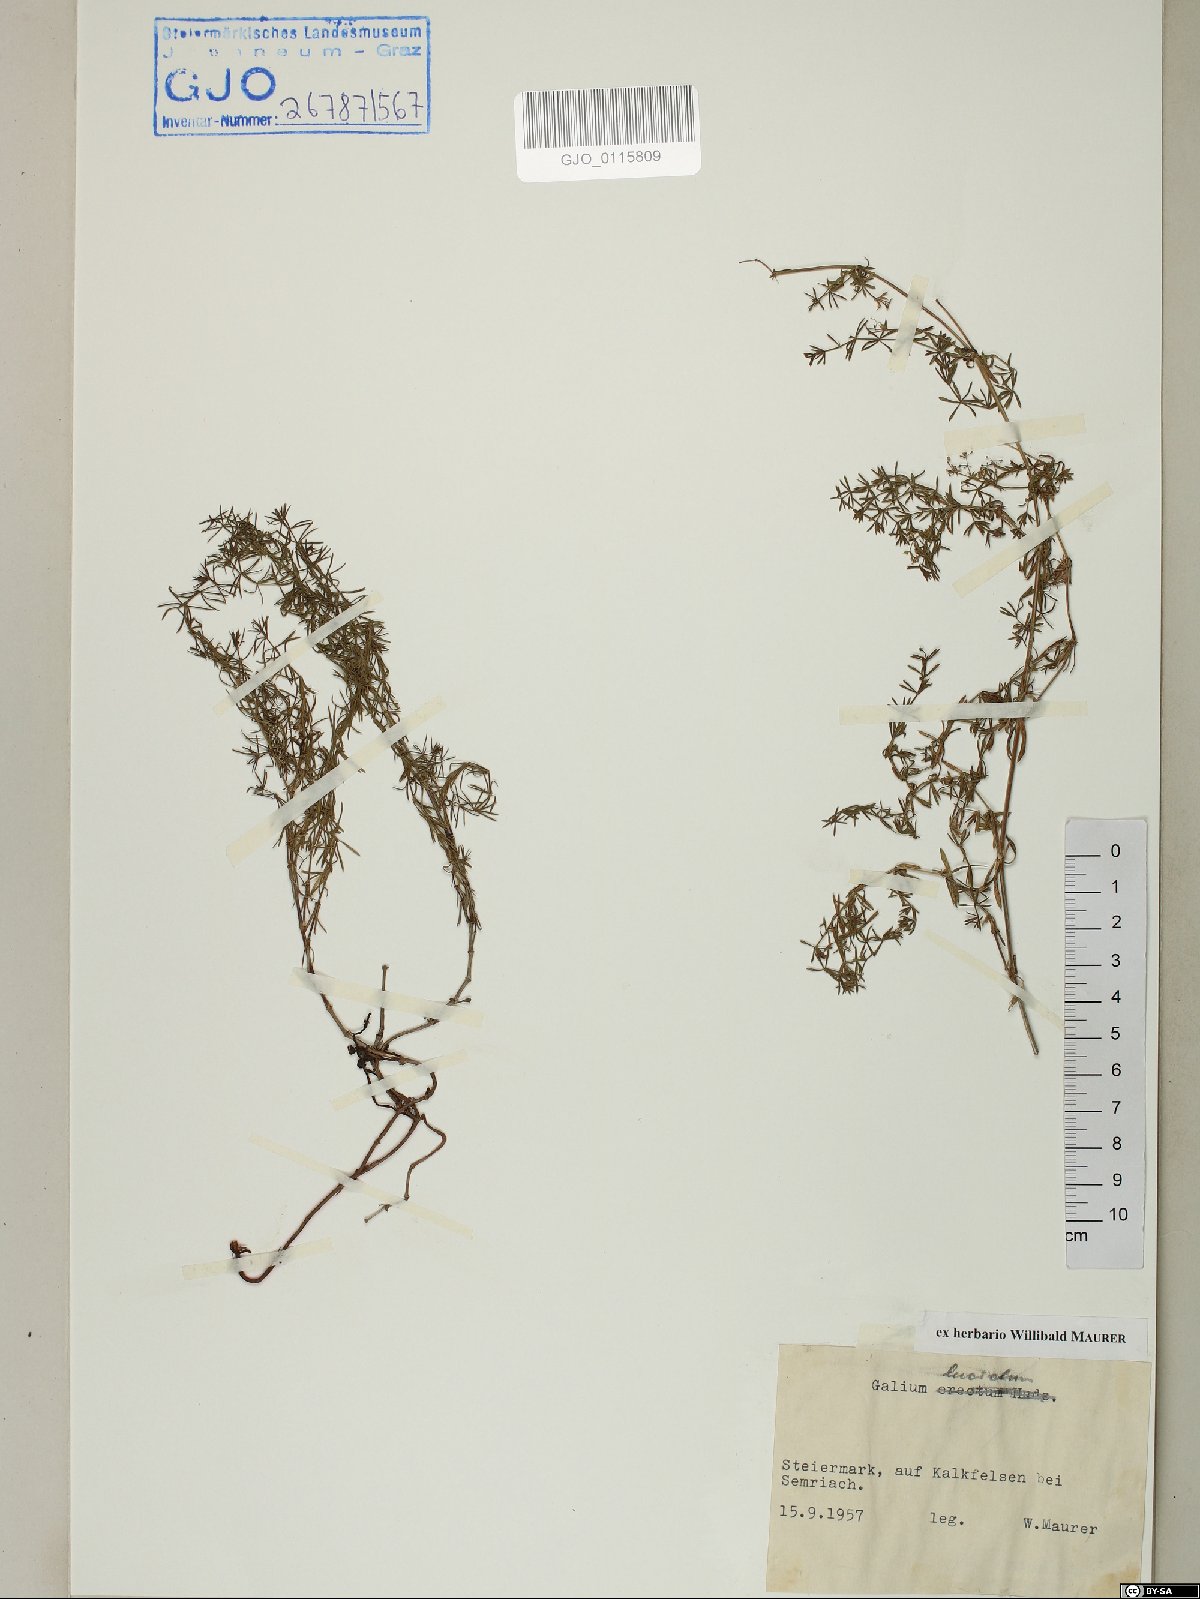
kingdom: Plantae
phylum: Tracheophyta
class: Magnoliopsida
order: Gentianales
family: Rubiaceae
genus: Galium
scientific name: Galium lucidum
